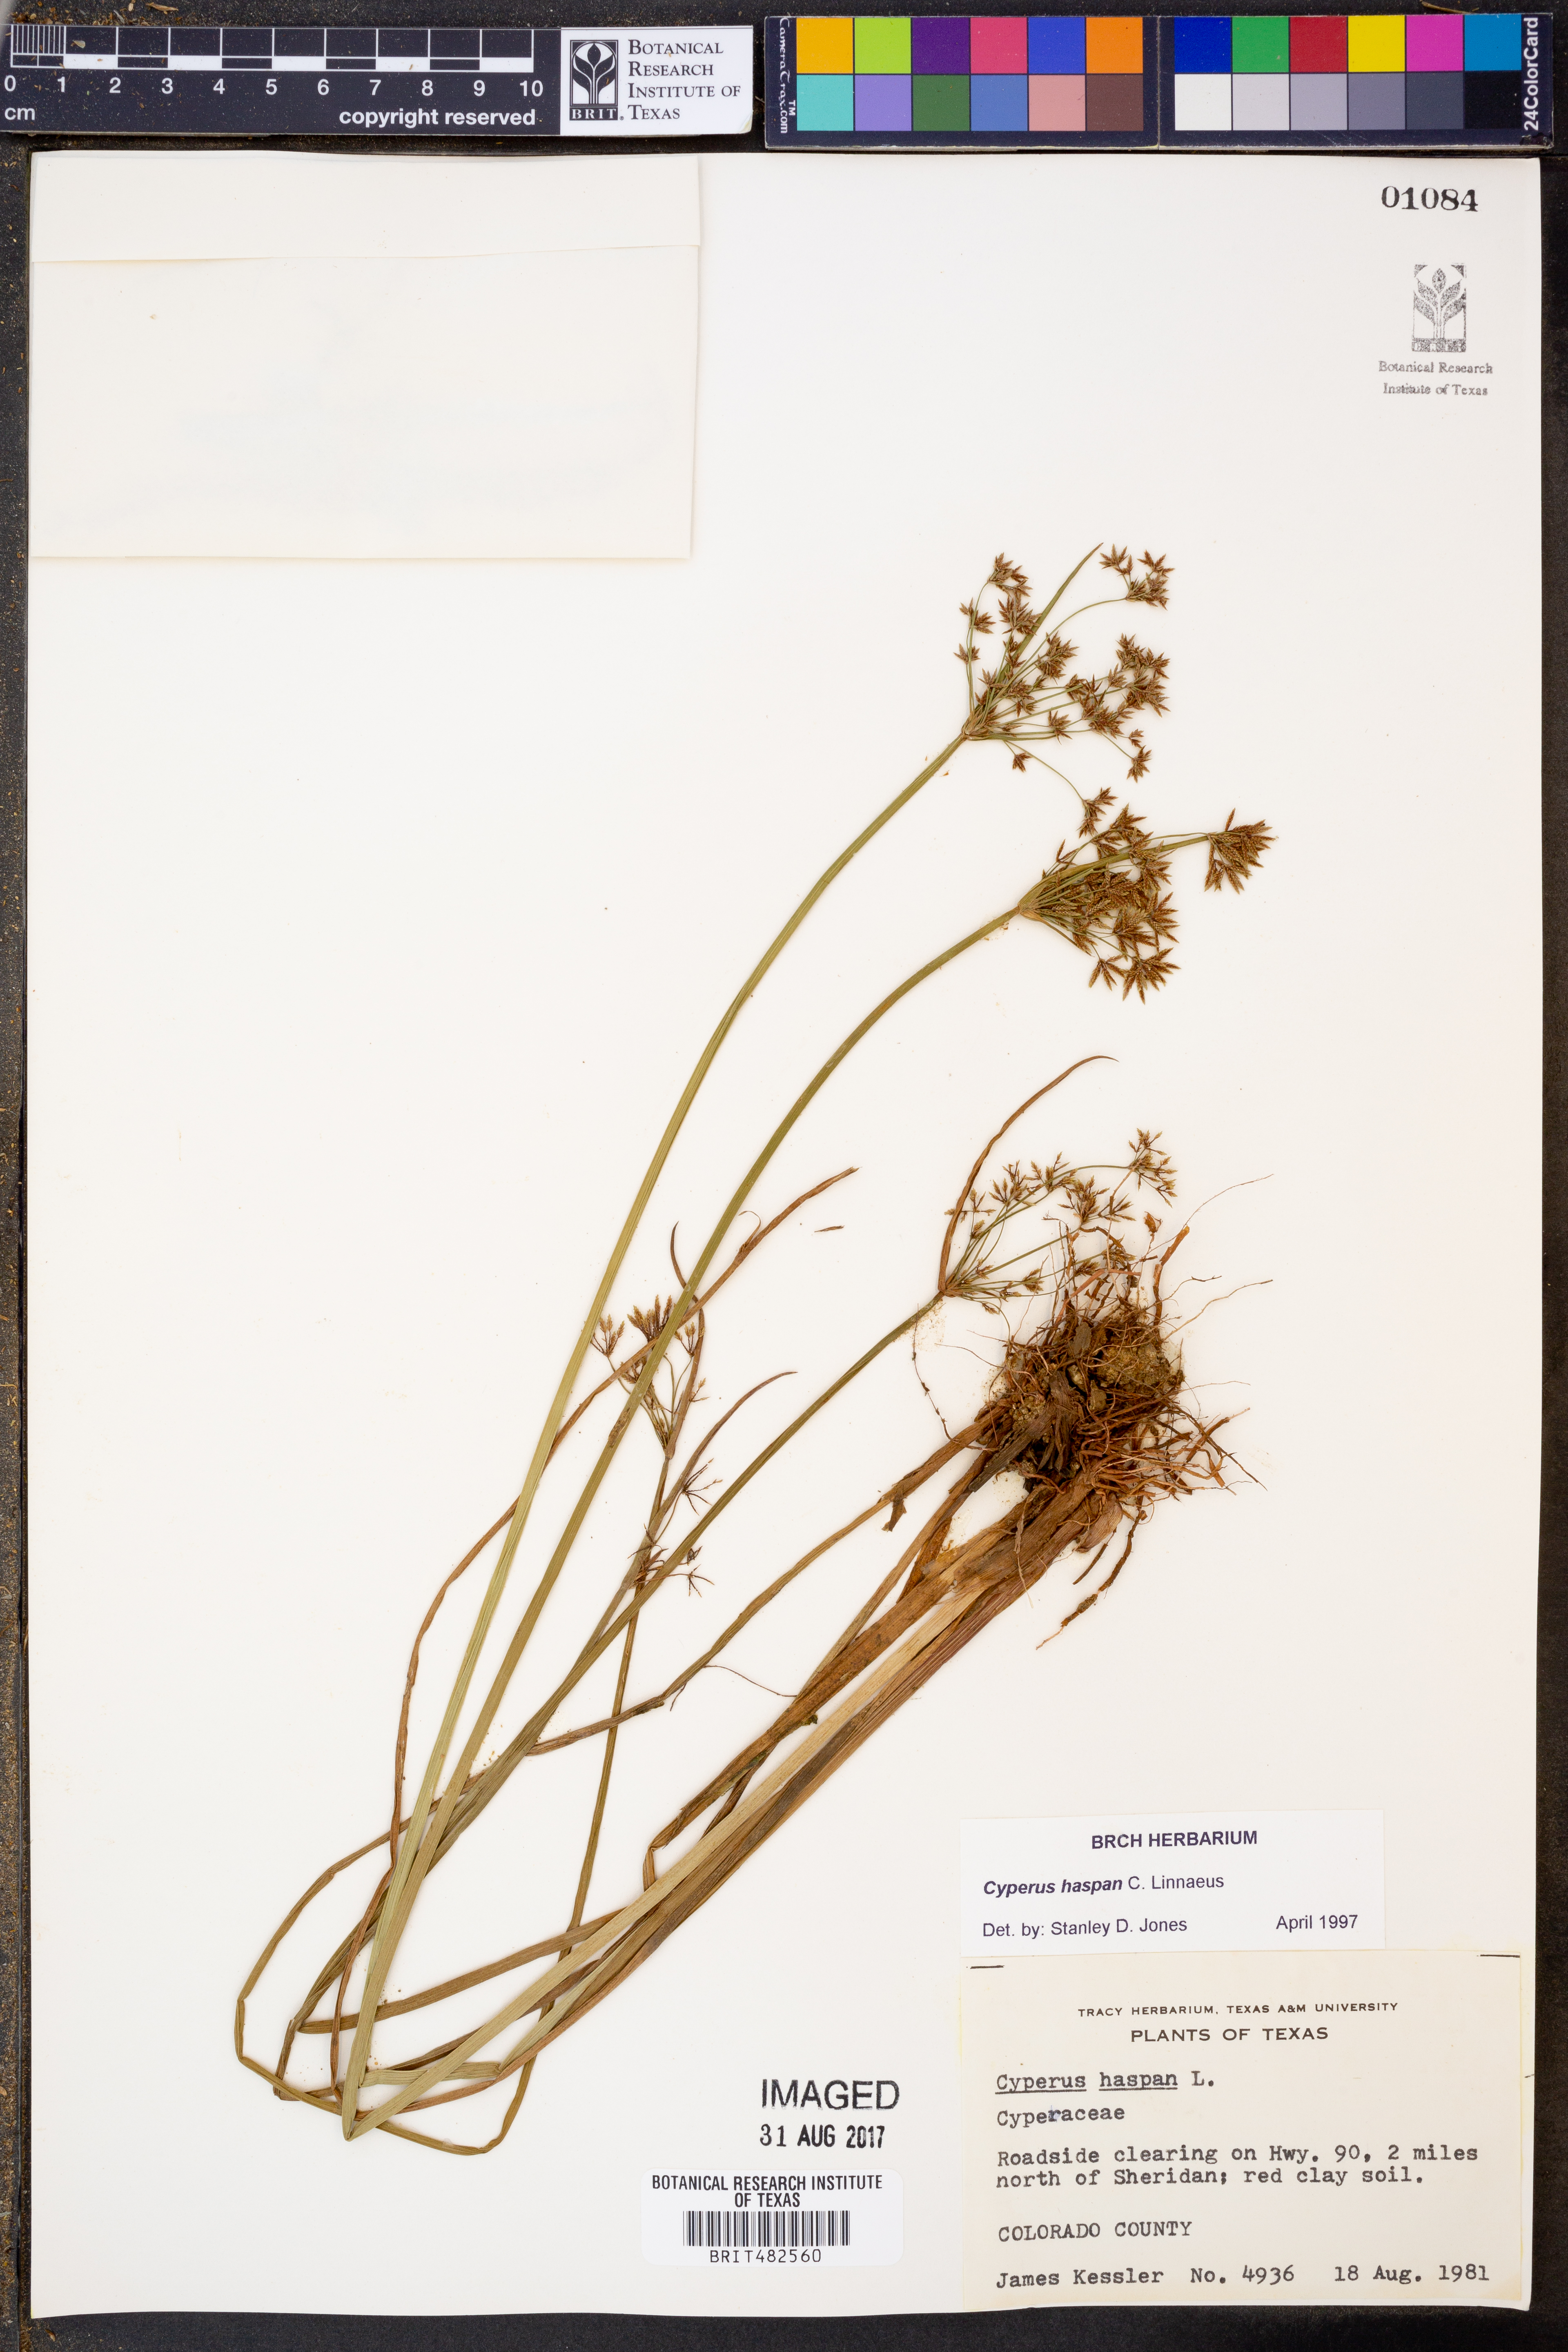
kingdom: Plantae
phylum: Tracheophyta
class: Liliopsida
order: Poales
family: Cyperaceae
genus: Cyperus
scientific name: Cyperus haspan
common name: Haspan flatsedge
